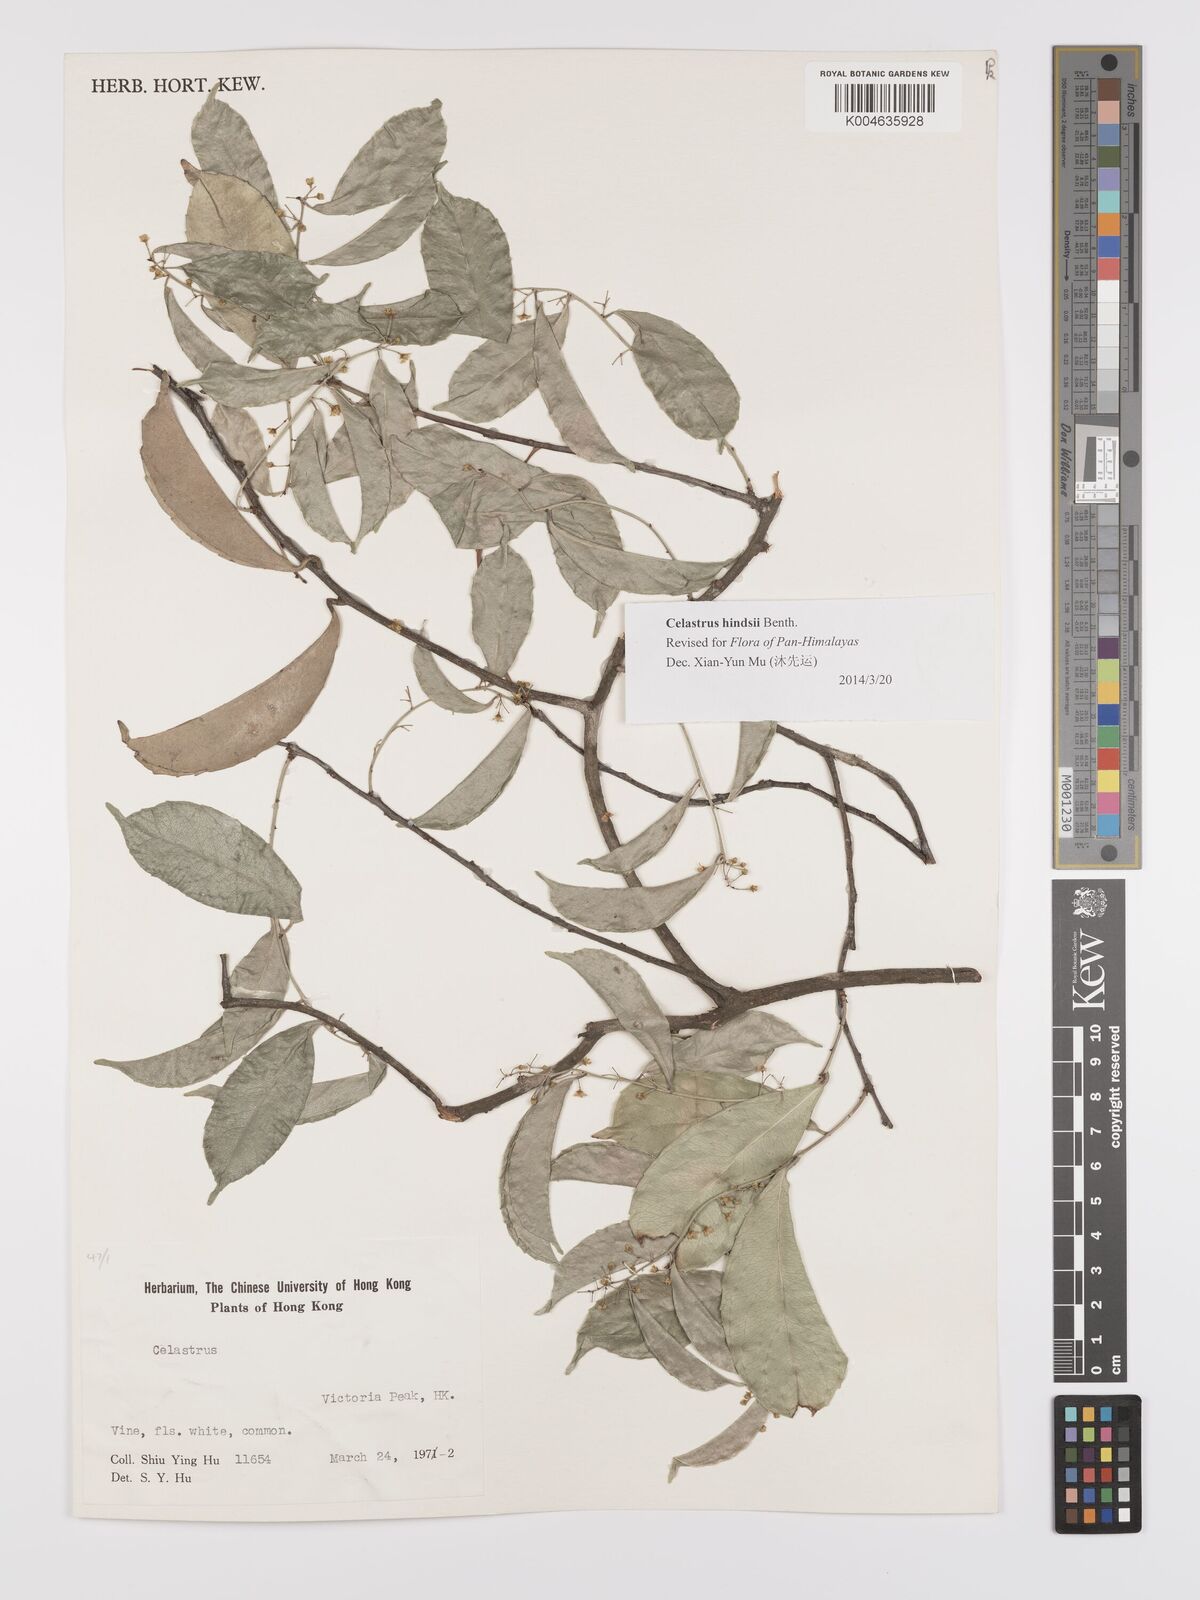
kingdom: Plantae
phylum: Tracheophyta
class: Magnoliopsida
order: Celastrales
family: Celastraceae
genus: Celastrus
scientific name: Celastrus hindsii
